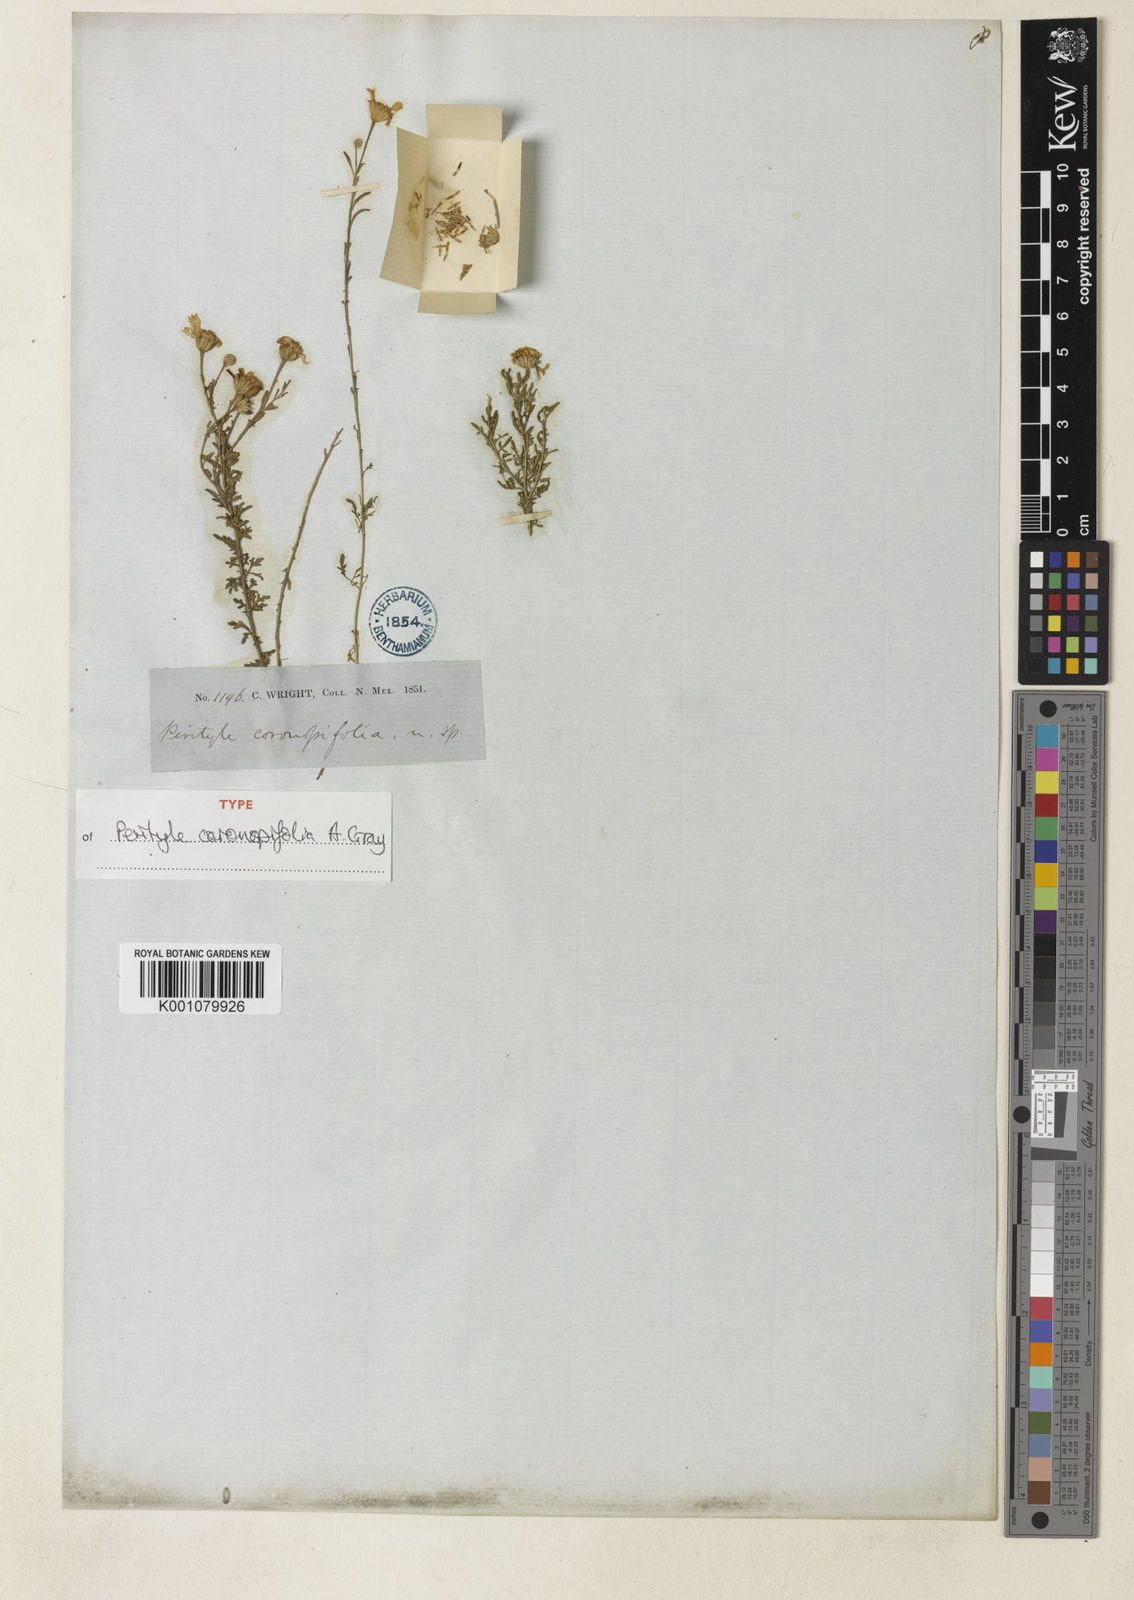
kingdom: Plantae
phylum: Tracheophyta
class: Magnoliopsida
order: Asterales
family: Asteraceae
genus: Galinsogeopsis
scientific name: Galinsogeopsis coronopifolia
